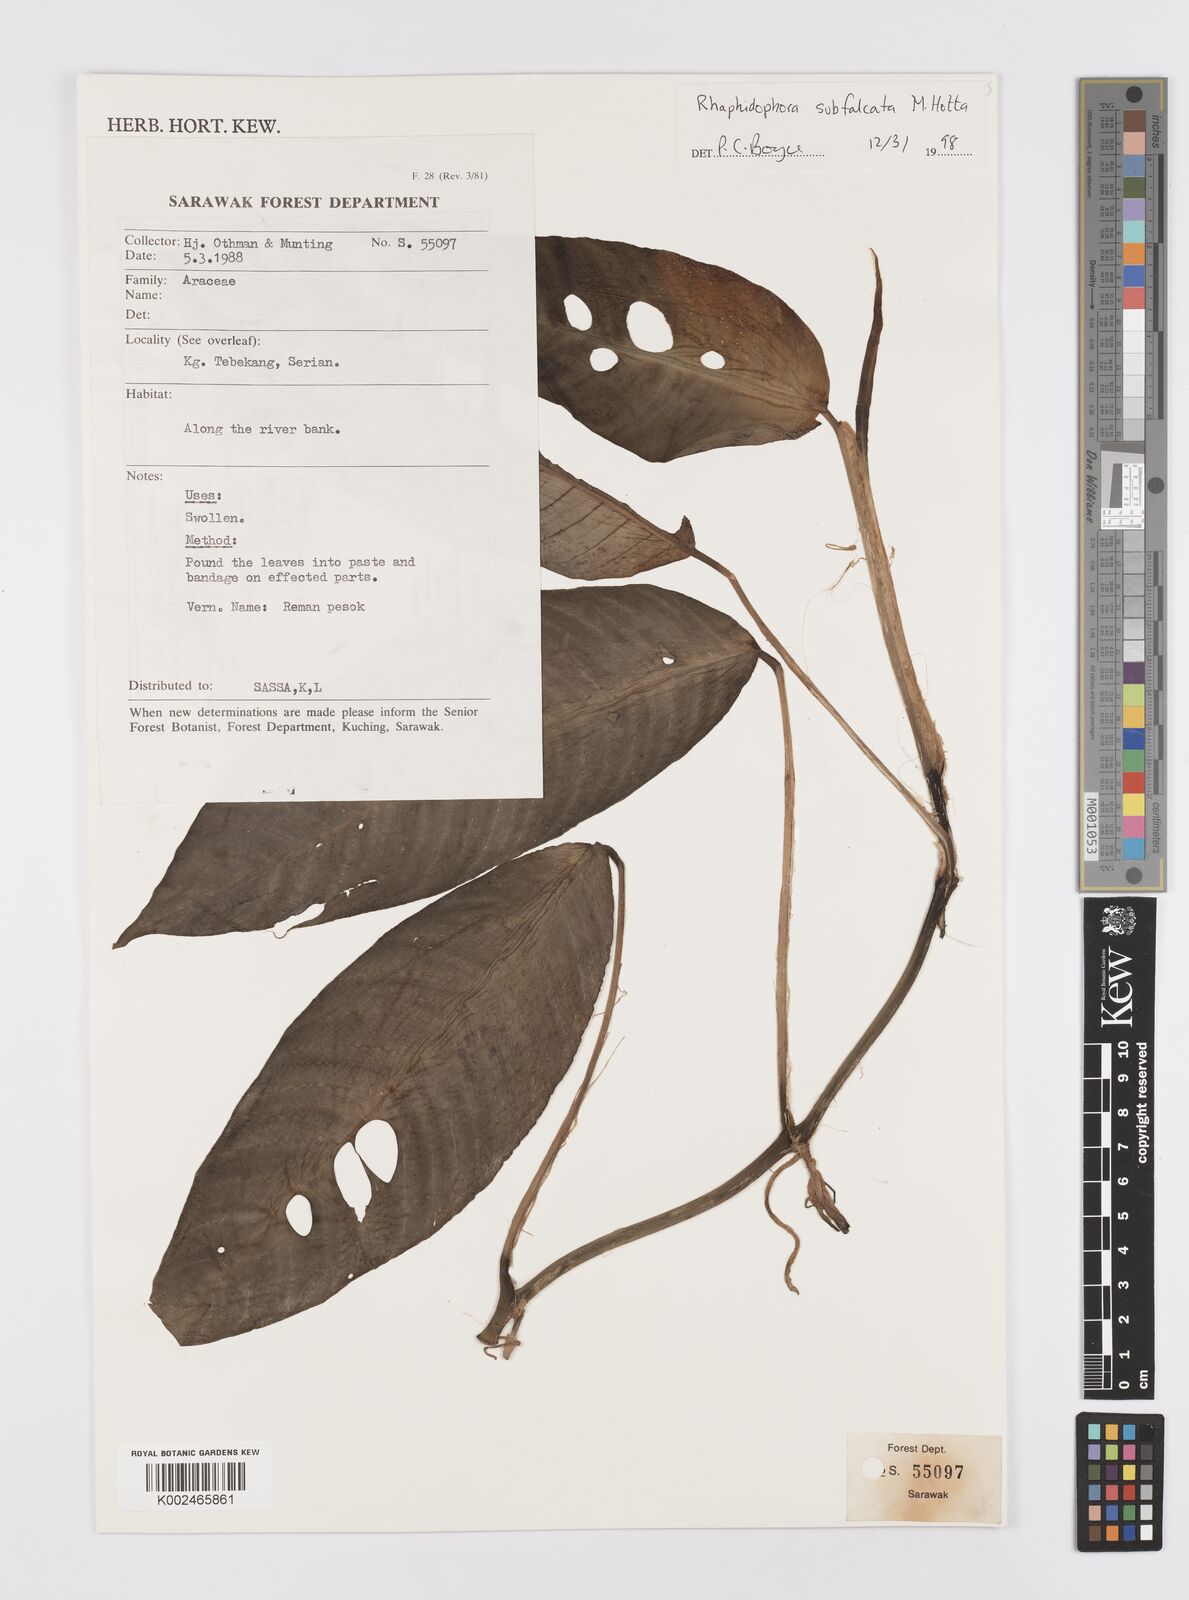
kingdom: Plantae
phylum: Tracheophyta
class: Liliopsida
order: Alismatales
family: Araceae
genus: Rhaphidophora
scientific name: Rhaphidophora
